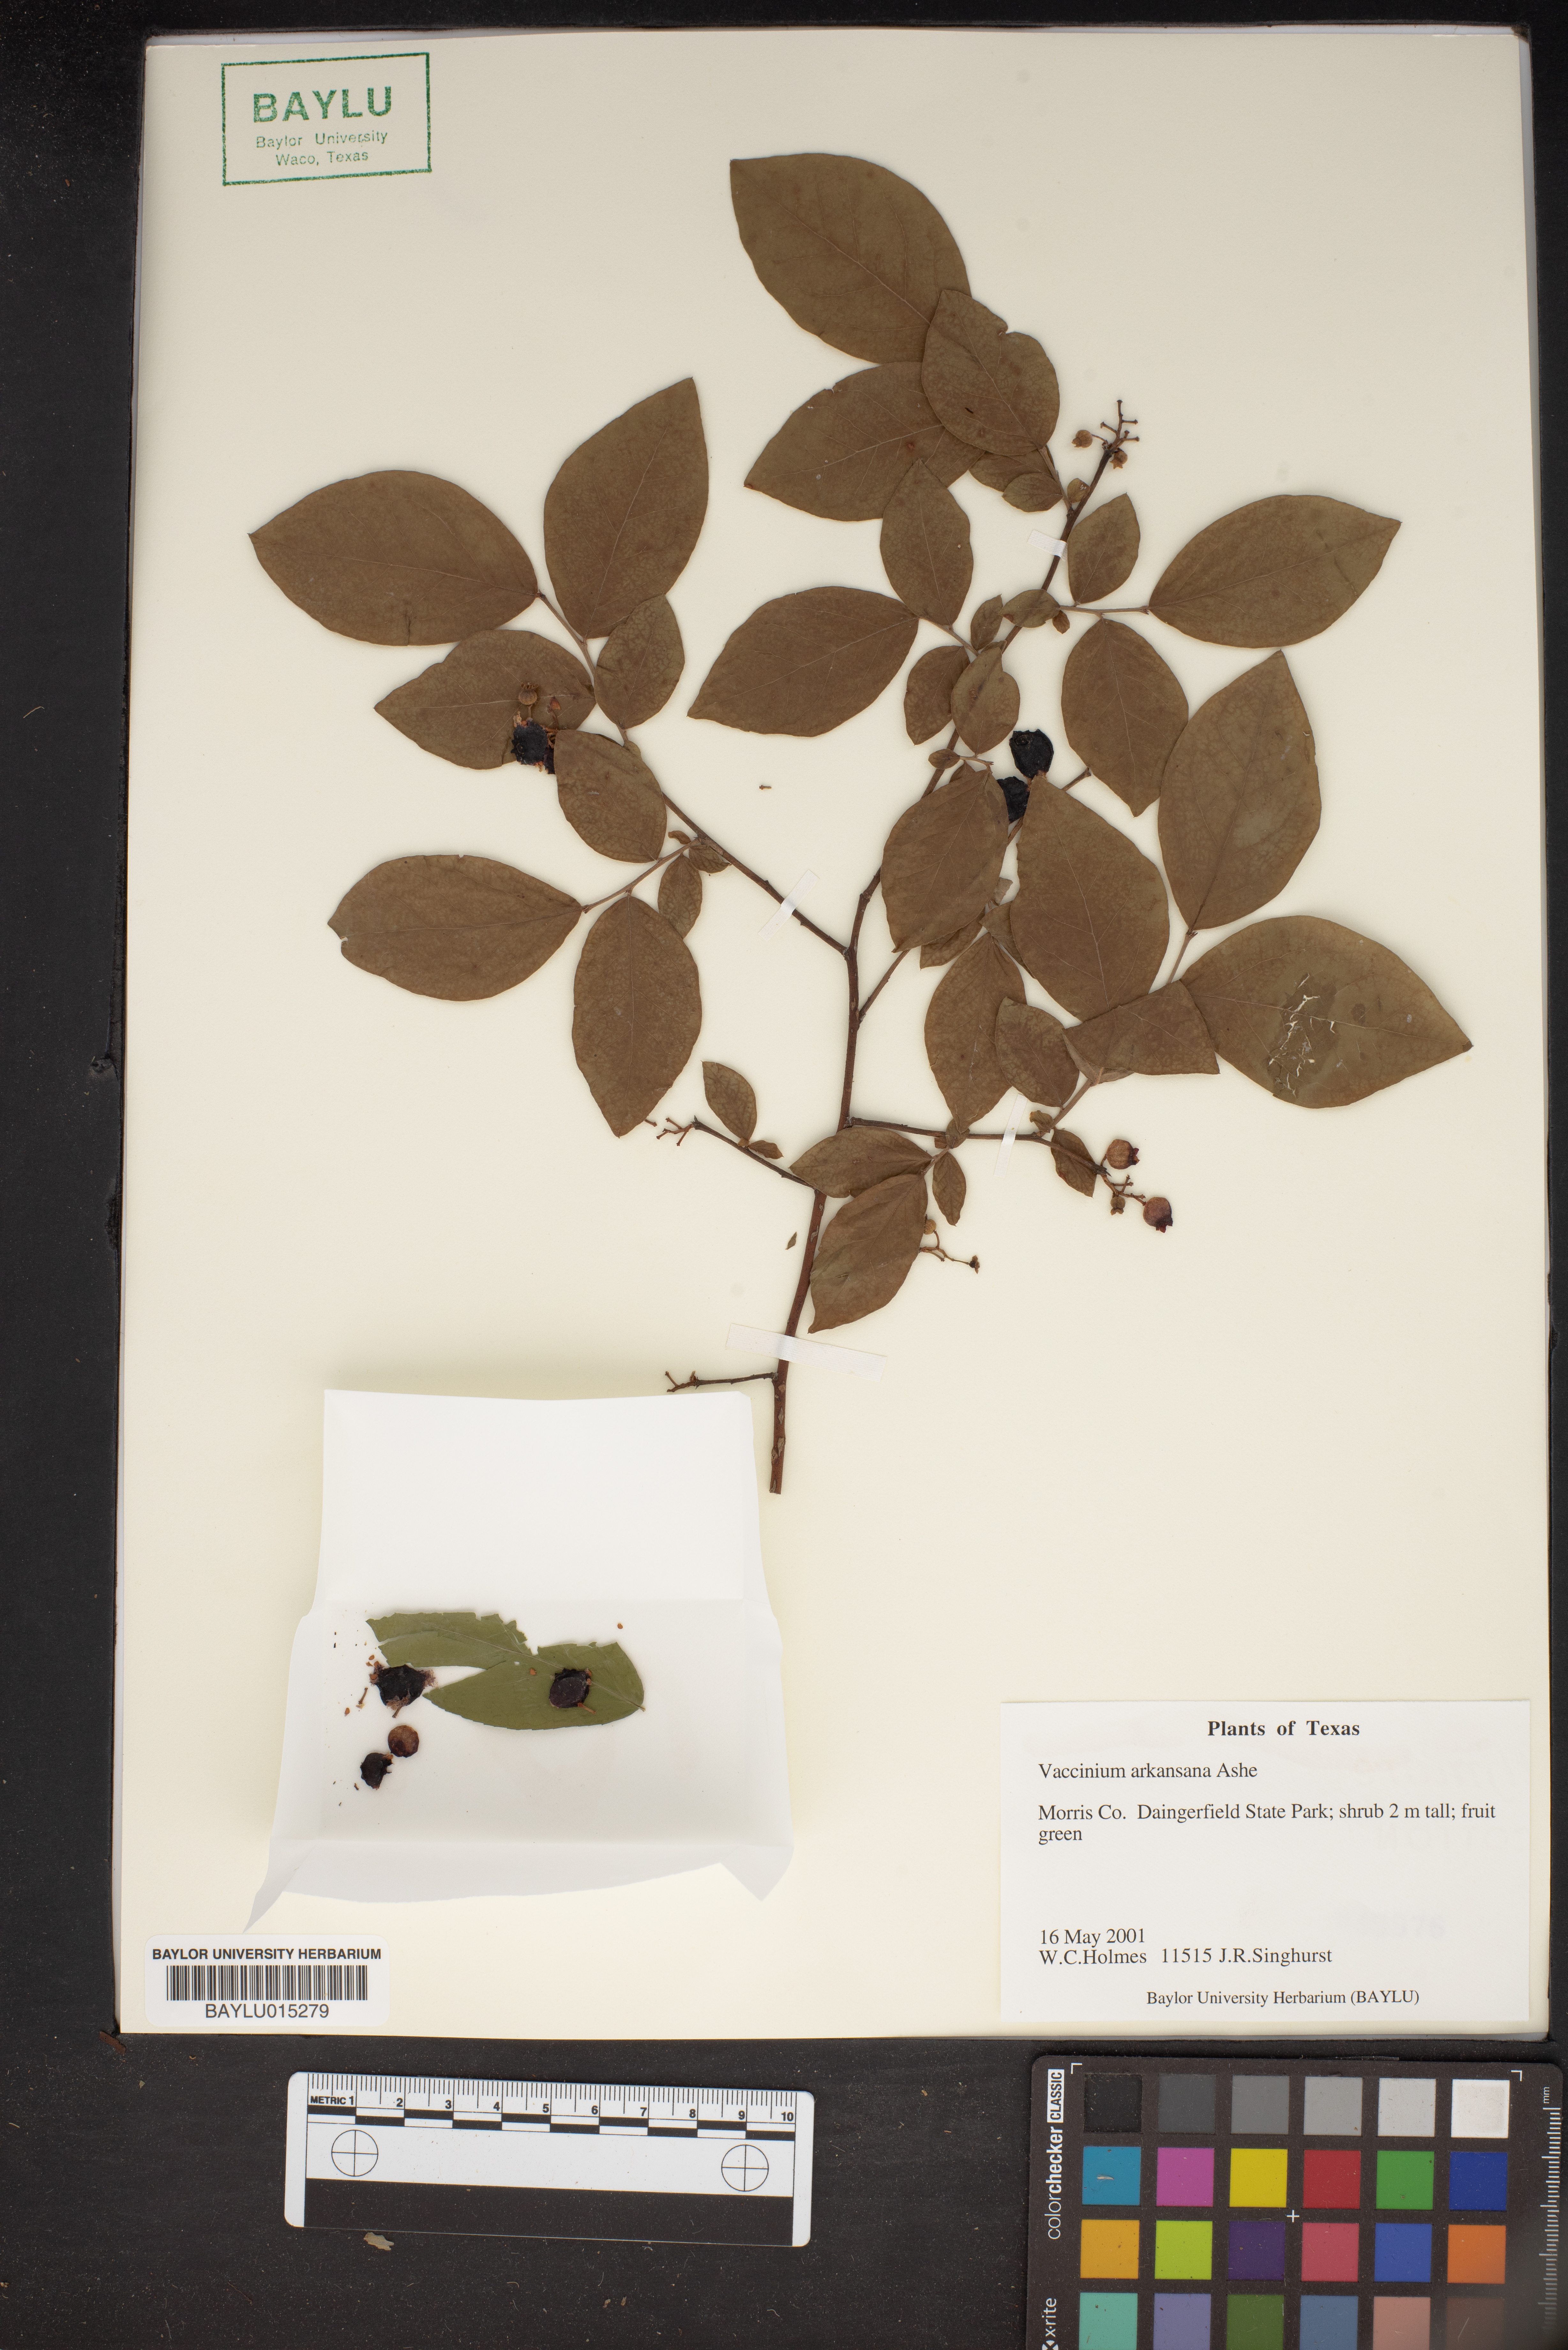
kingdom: Plantae
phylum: Tracheophyta
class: Magnoliopsida
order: Ericales
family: Ericaceae
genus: Vaccinium
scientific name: Vaccinium corymbosum
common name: Blueberry
